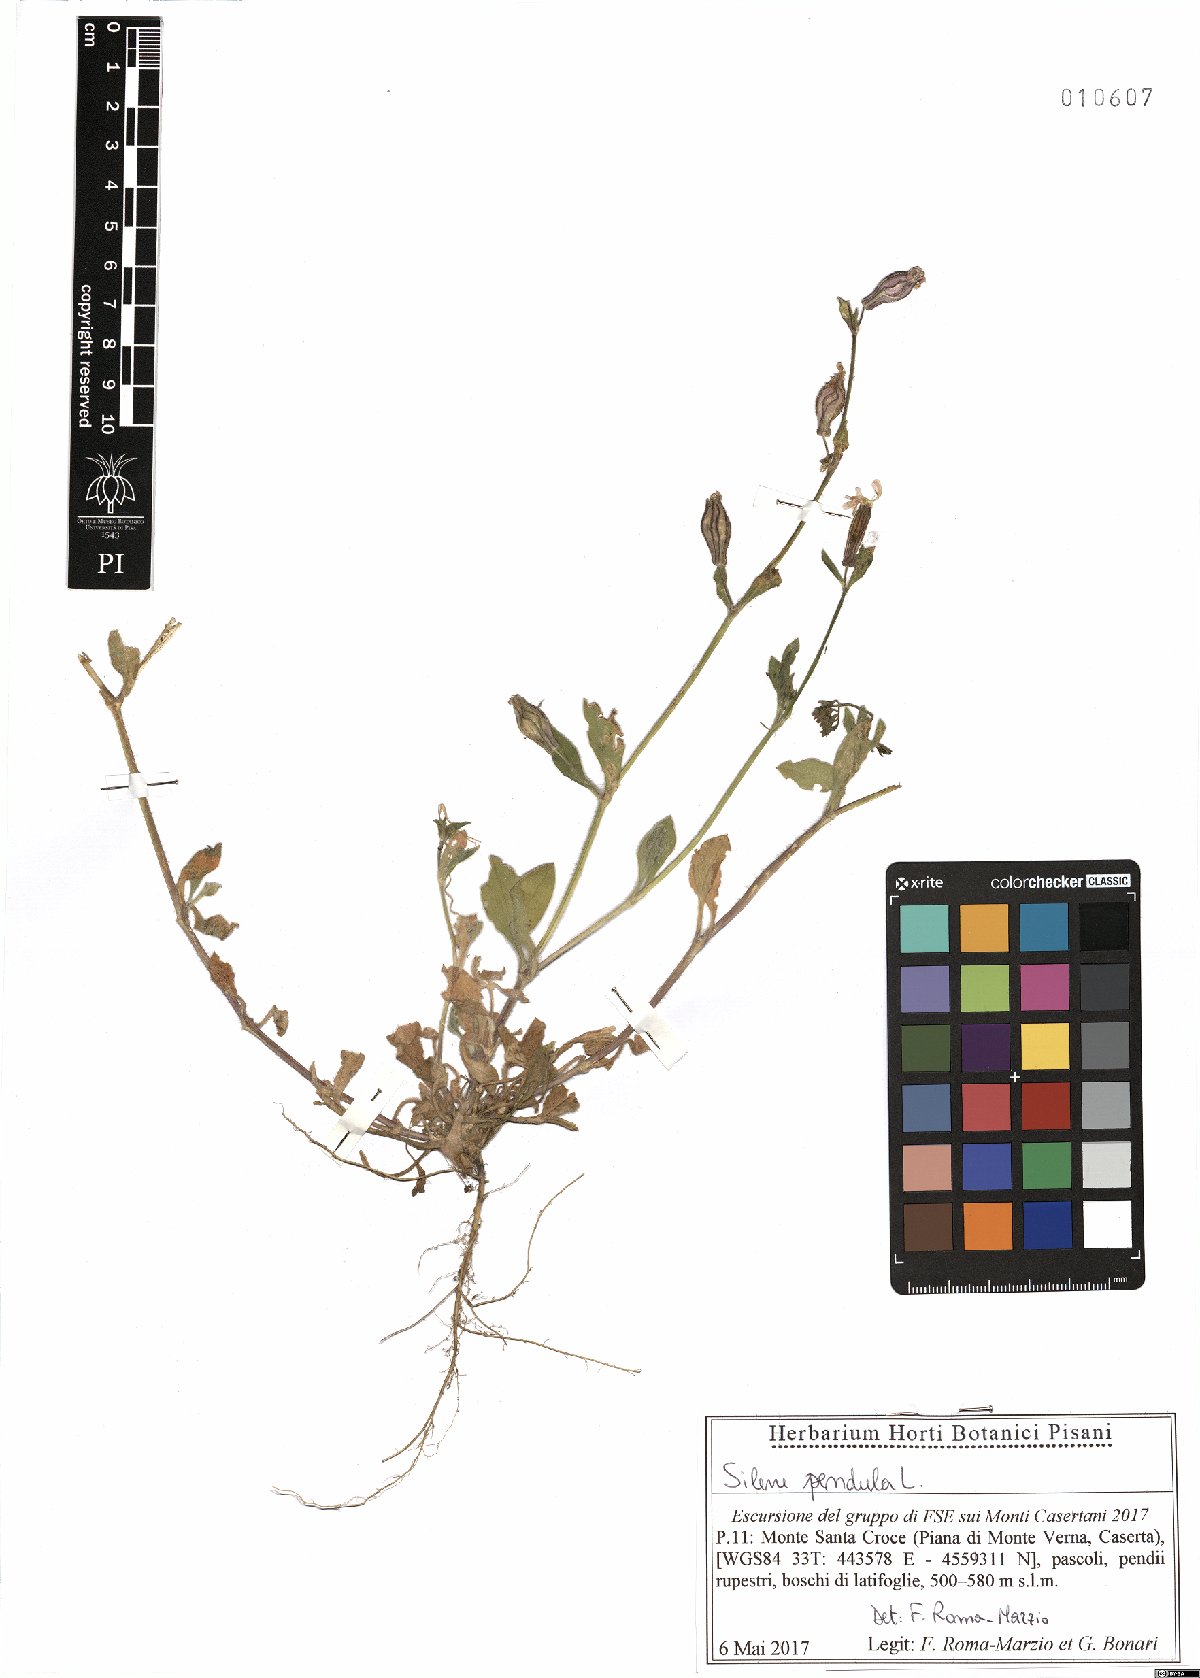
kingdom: Plantae
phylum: Tracheophyta
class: Magnoliopsida
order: Caryophyllales
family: Caryophyllaceae
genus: Silene
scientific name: Silene pendula
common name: Nodding catchfly
